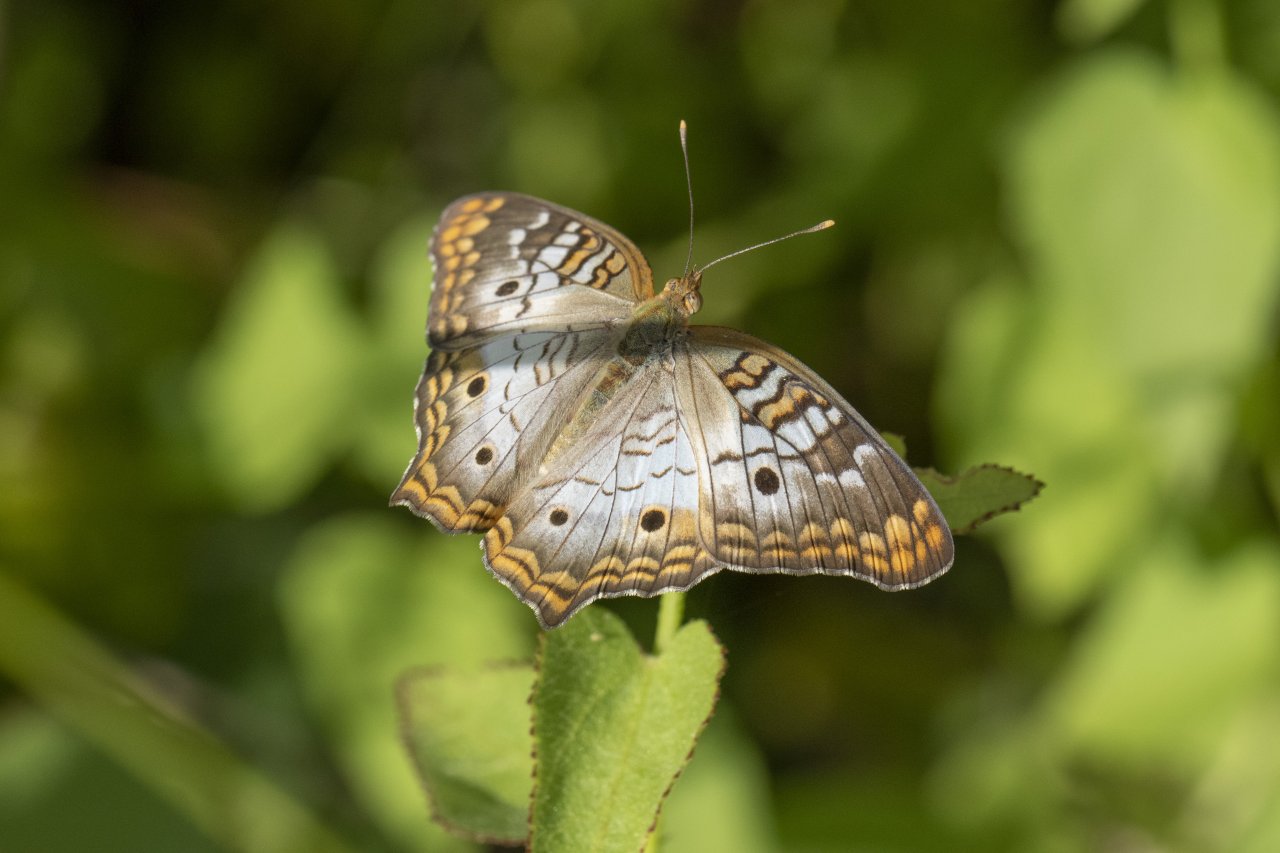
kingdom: Animalia
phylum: Arthropoda
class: Insecta
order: Lepidoptera
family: Nymphalidae
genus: Anartia
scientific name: Anartia jatrophae
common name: White Peacock
